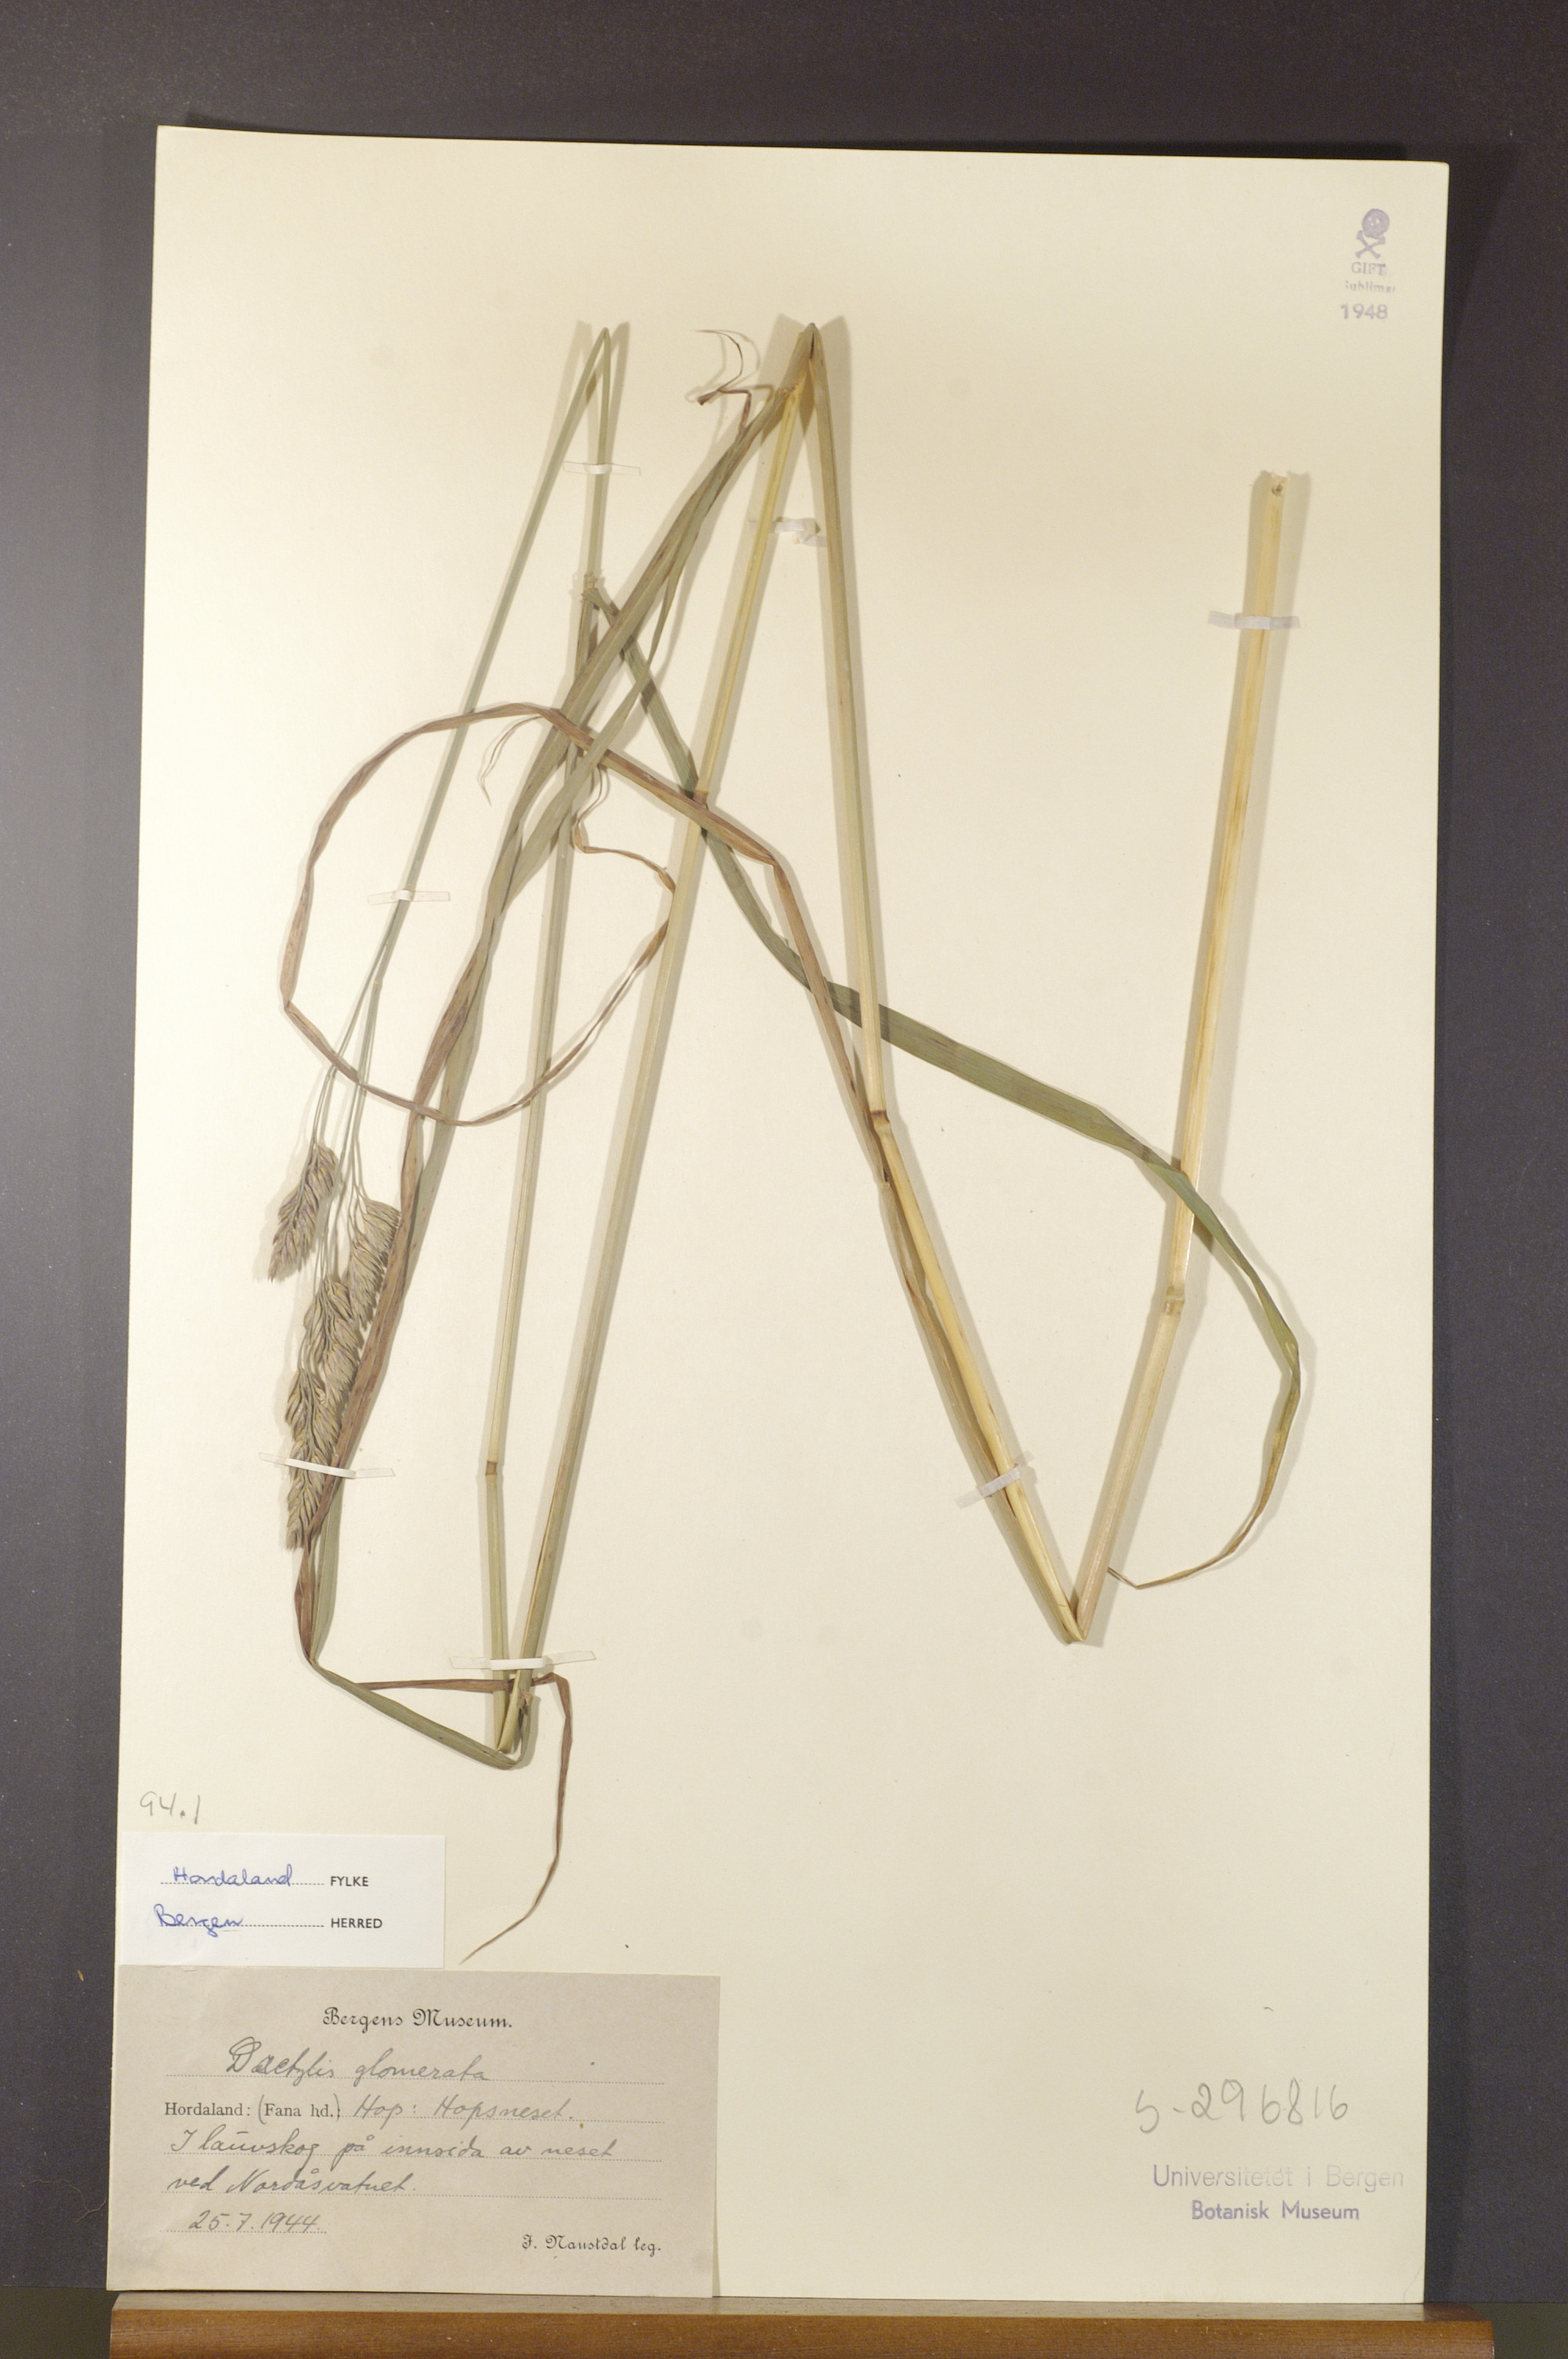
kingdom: Plantae
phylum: Tracheophyta
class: Liliopsida
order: Poales
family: Poaceae
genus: Dactylis
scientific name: Dactylis glomerata
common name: Orchardgrass
